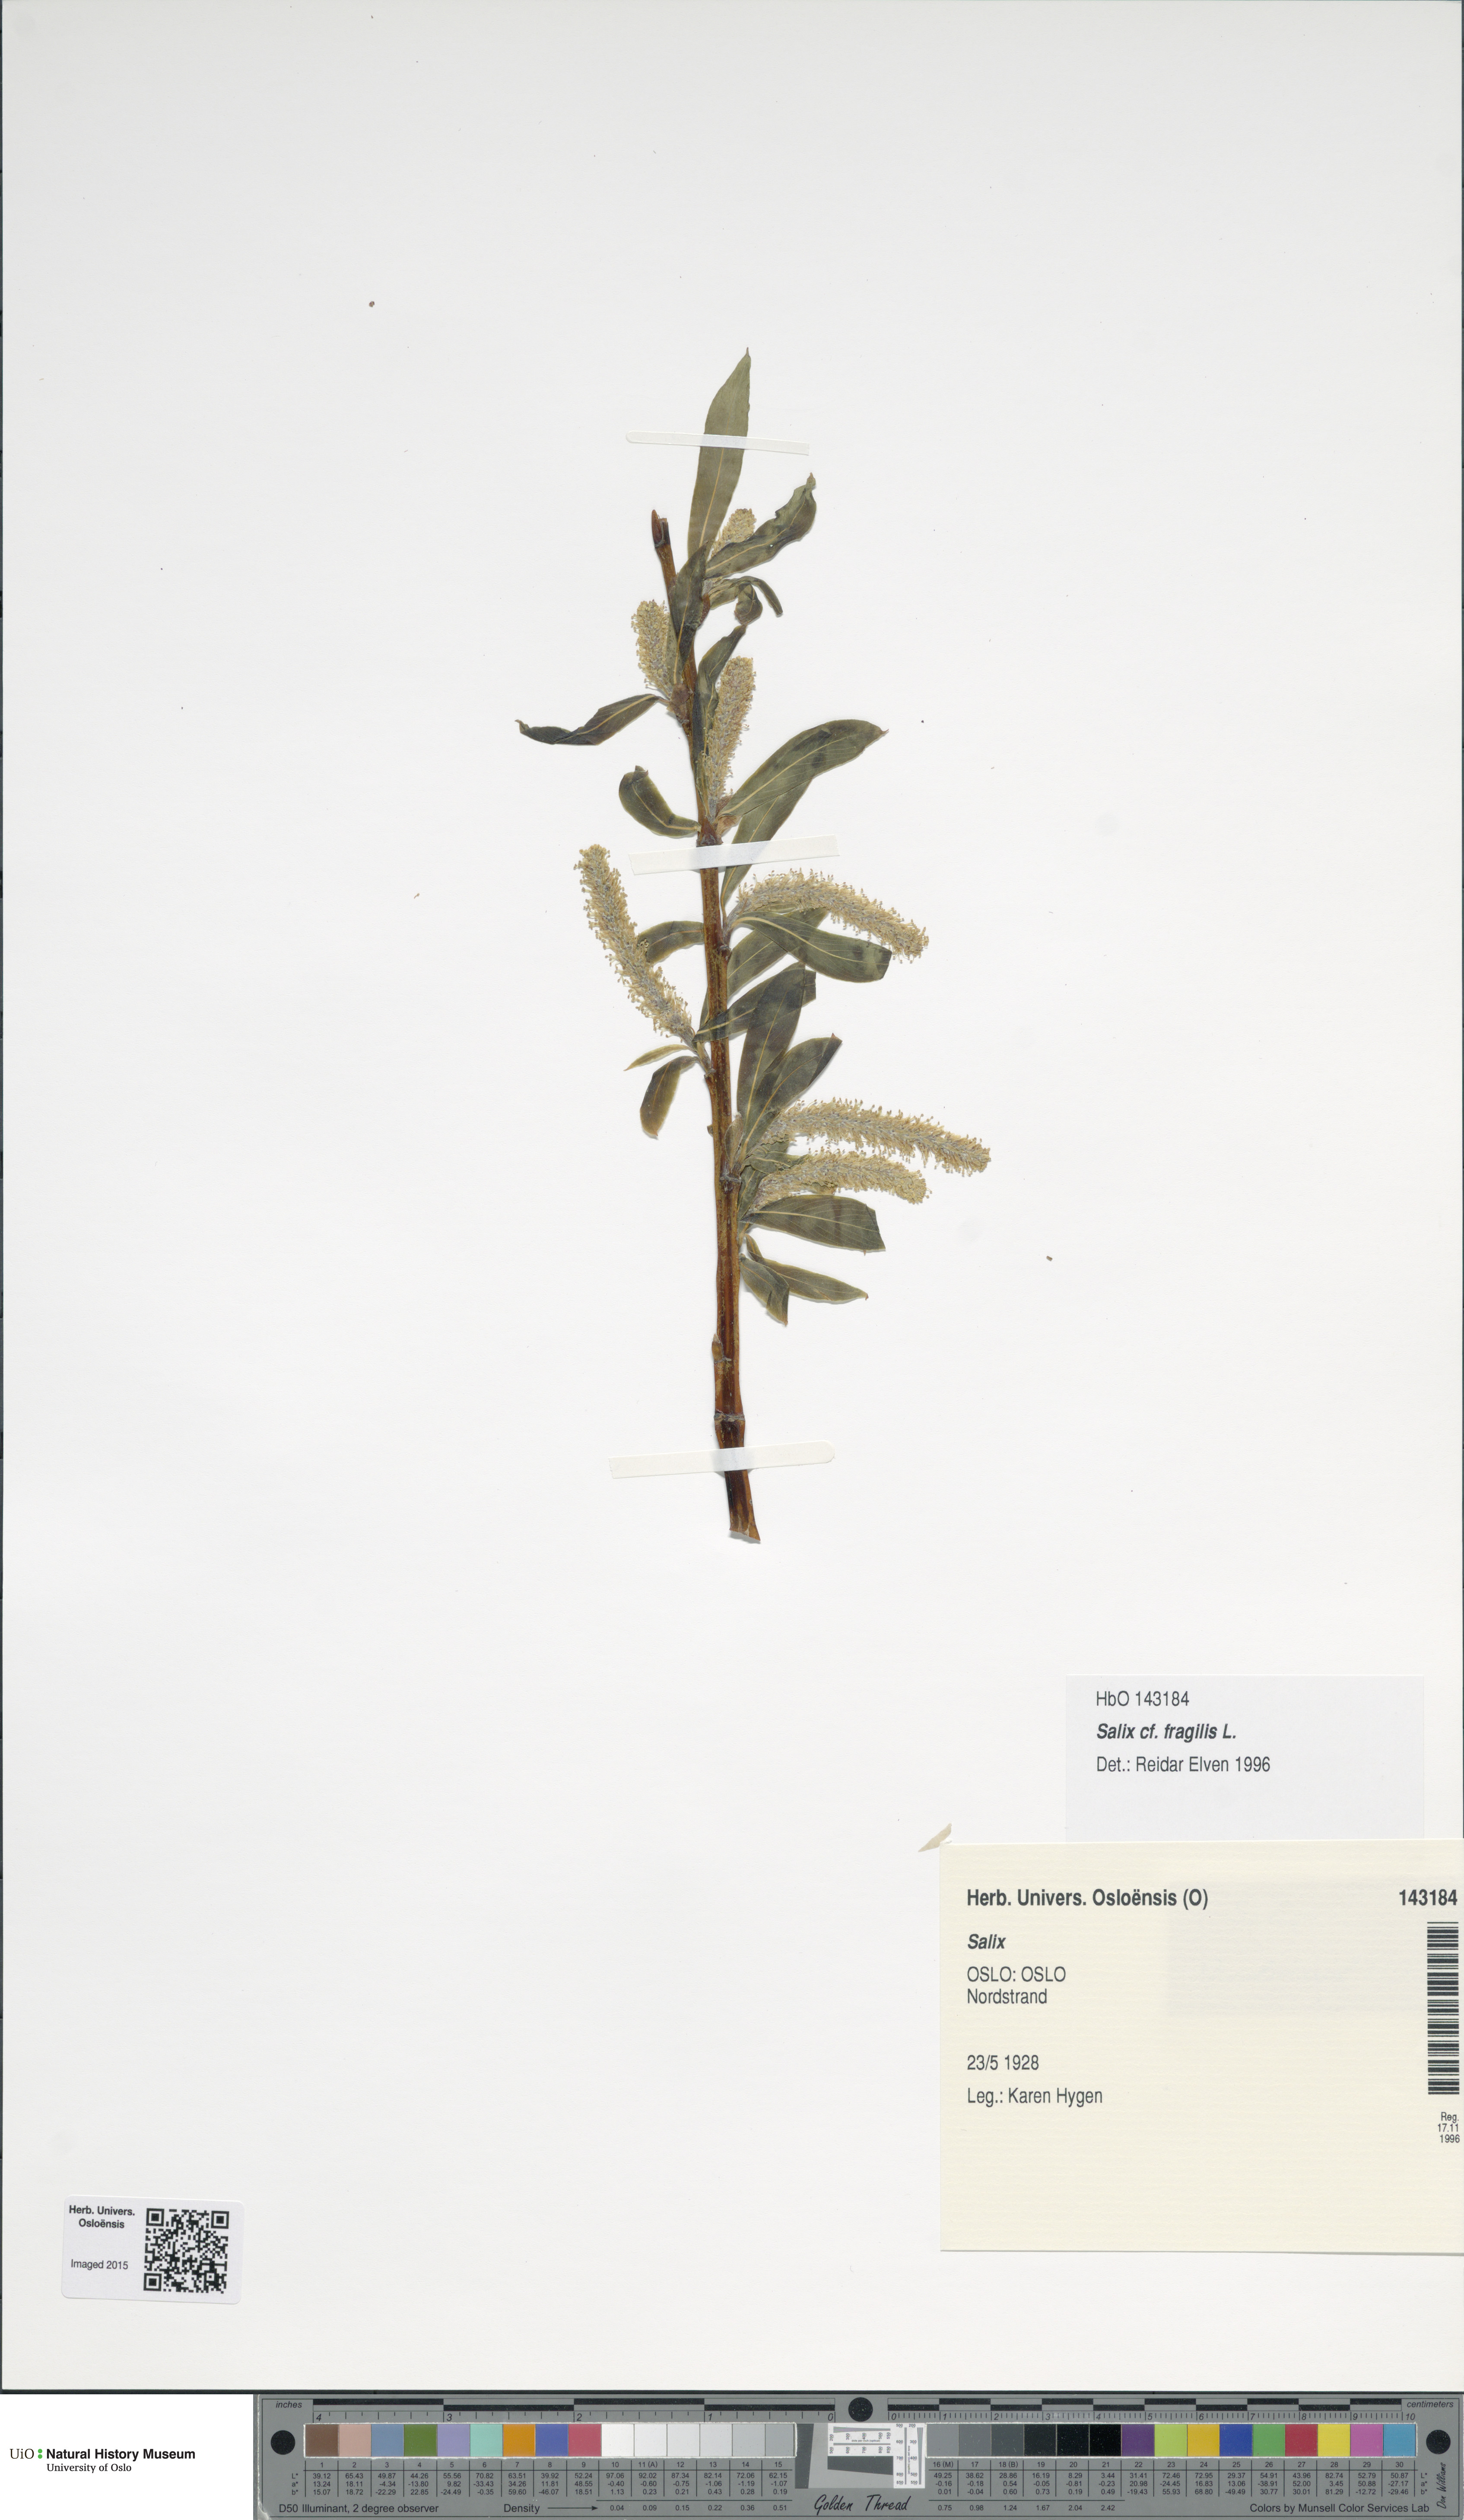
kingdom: Plantae
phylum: Tracheophyta
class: Magnoliopsida
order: Malpighiales
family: Salicaceae
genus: Salix
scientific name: Salix hexandra
